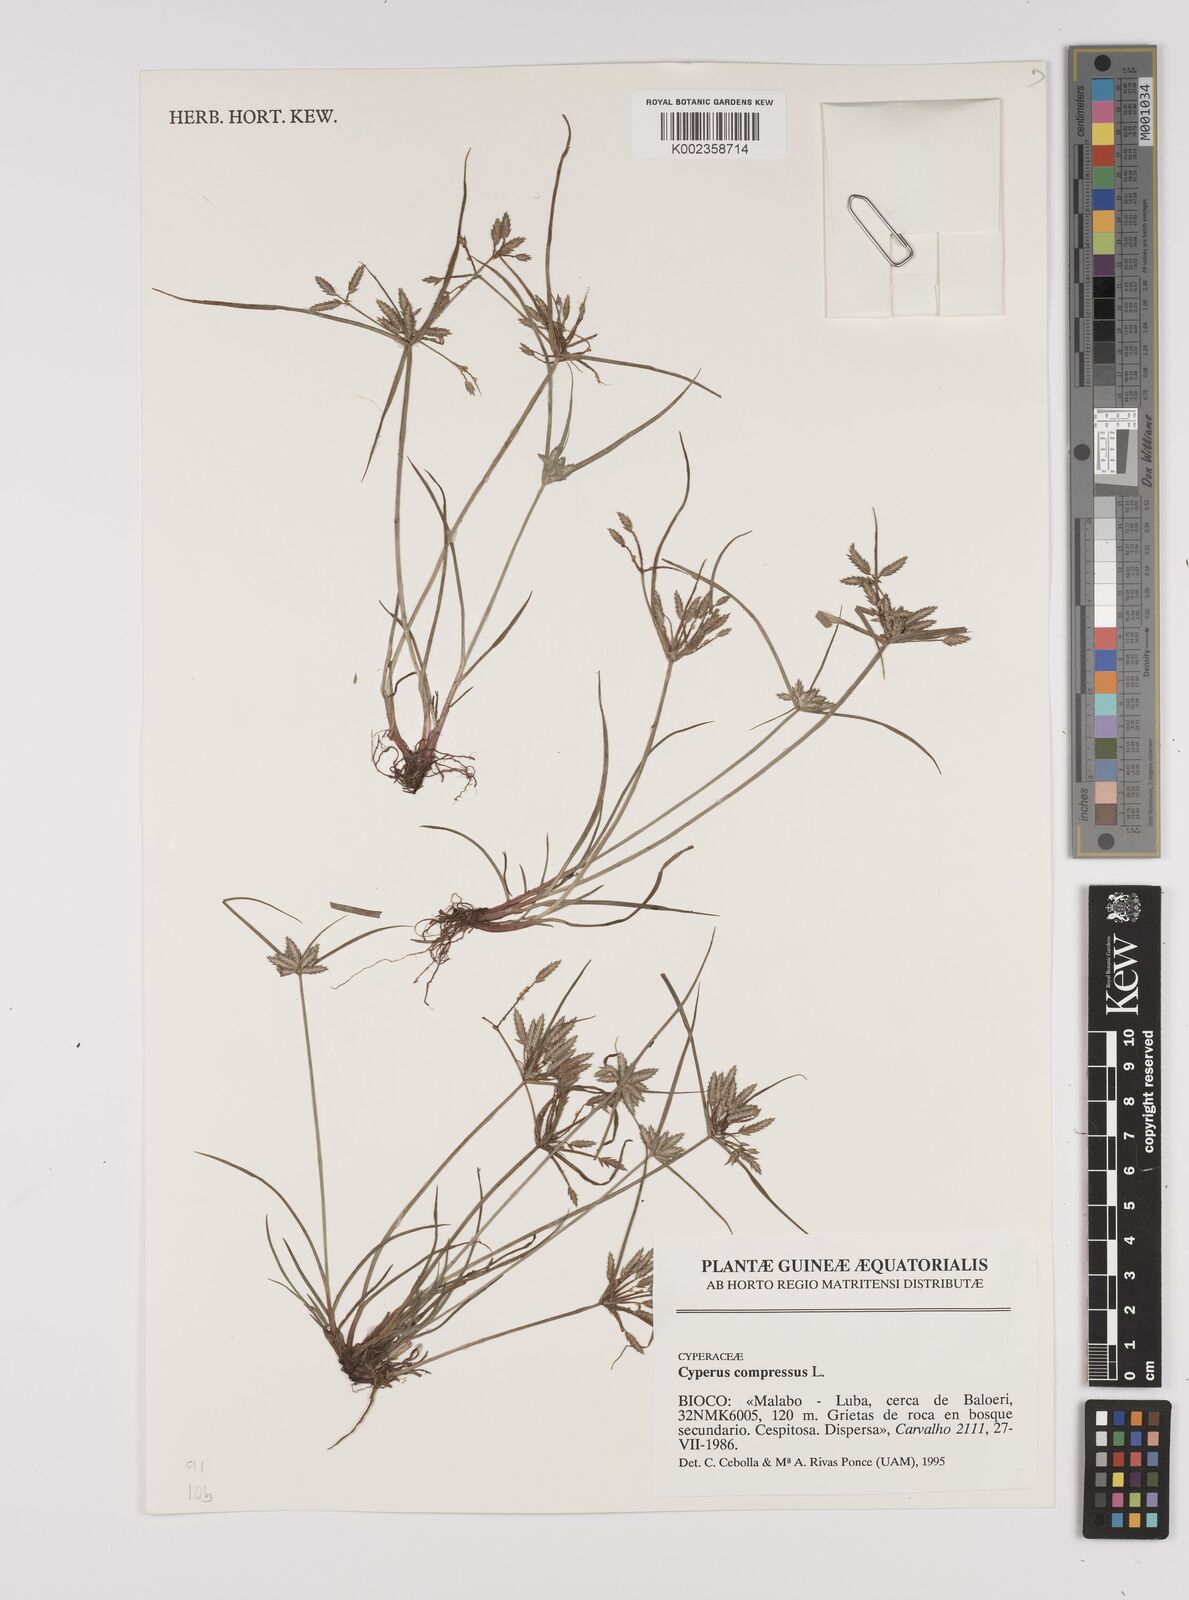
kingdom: Plantae
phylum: Tracheophyta
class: Liliopsida
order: Poales
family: Cyperaceae
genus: Cyperus
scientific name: Cyperus compressus
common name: Poorland flatsedge
